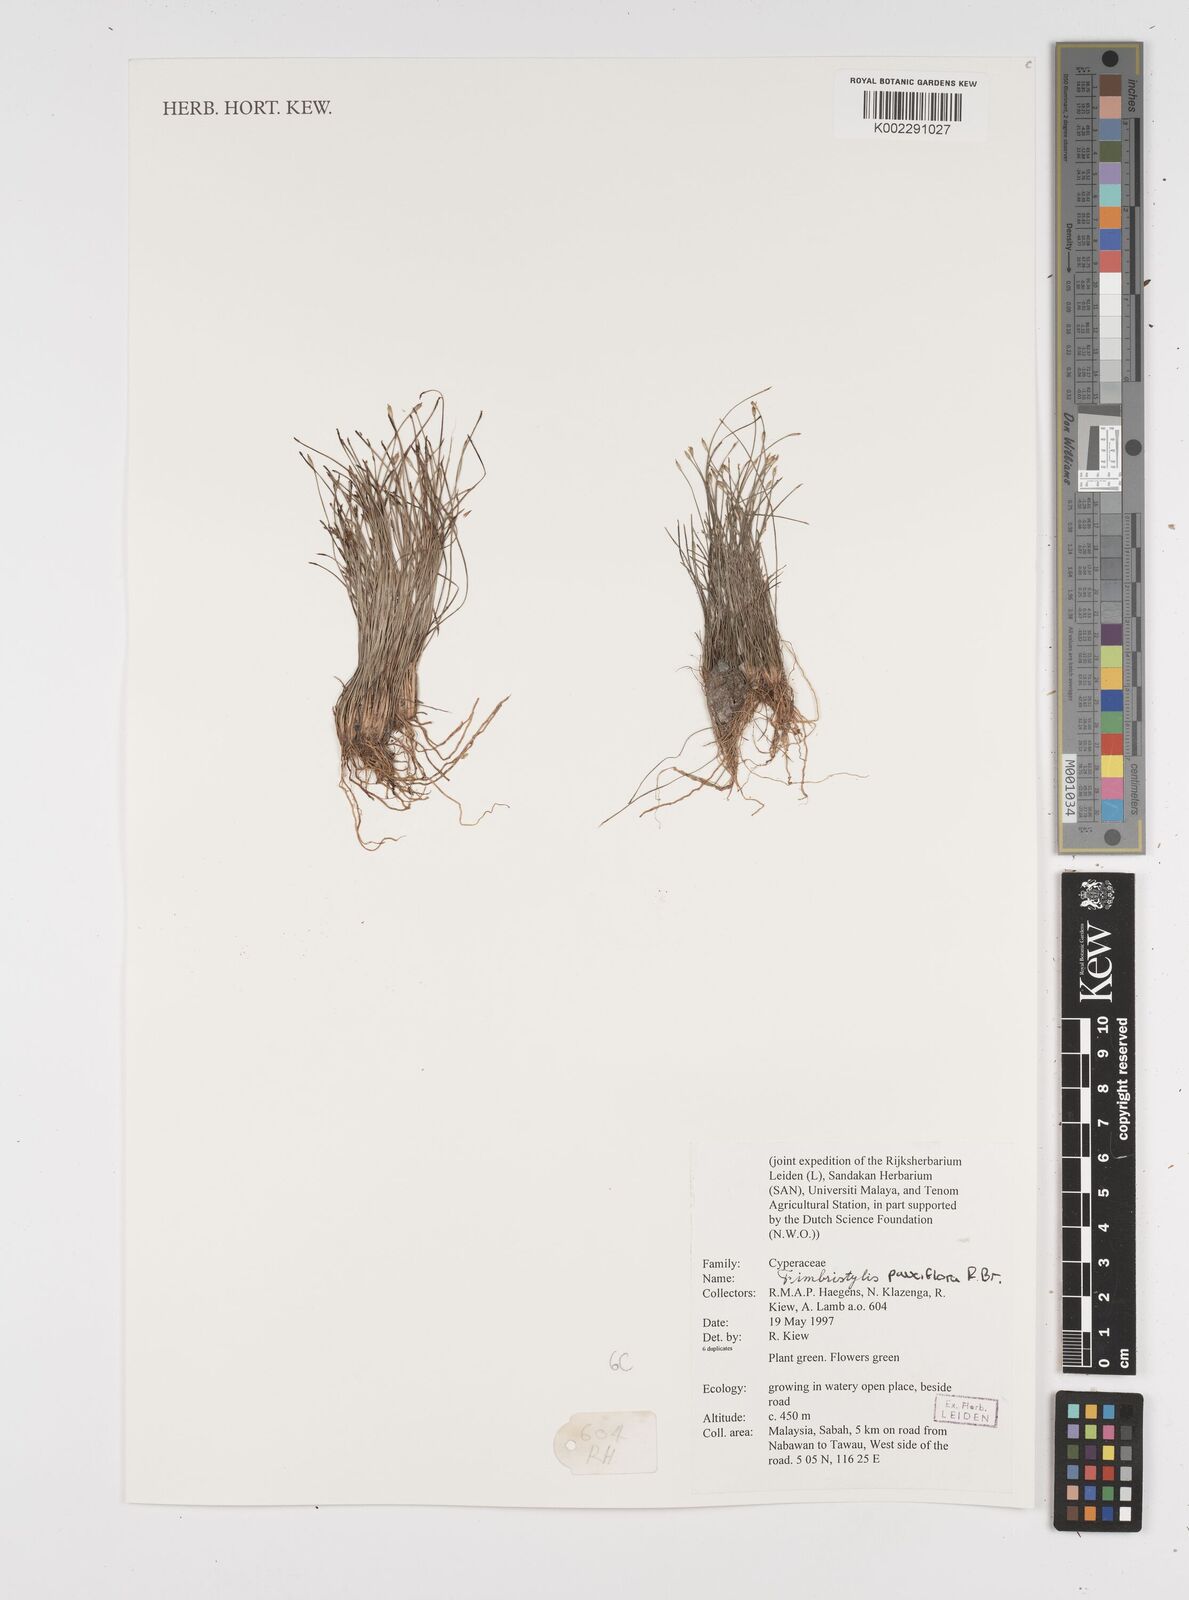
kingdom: Plantae
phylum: Tracheophyta
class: Liliopsida
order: Poales
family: Cyperaceae
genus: Fimbristylis
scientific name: Fimbristylis pauciflora
